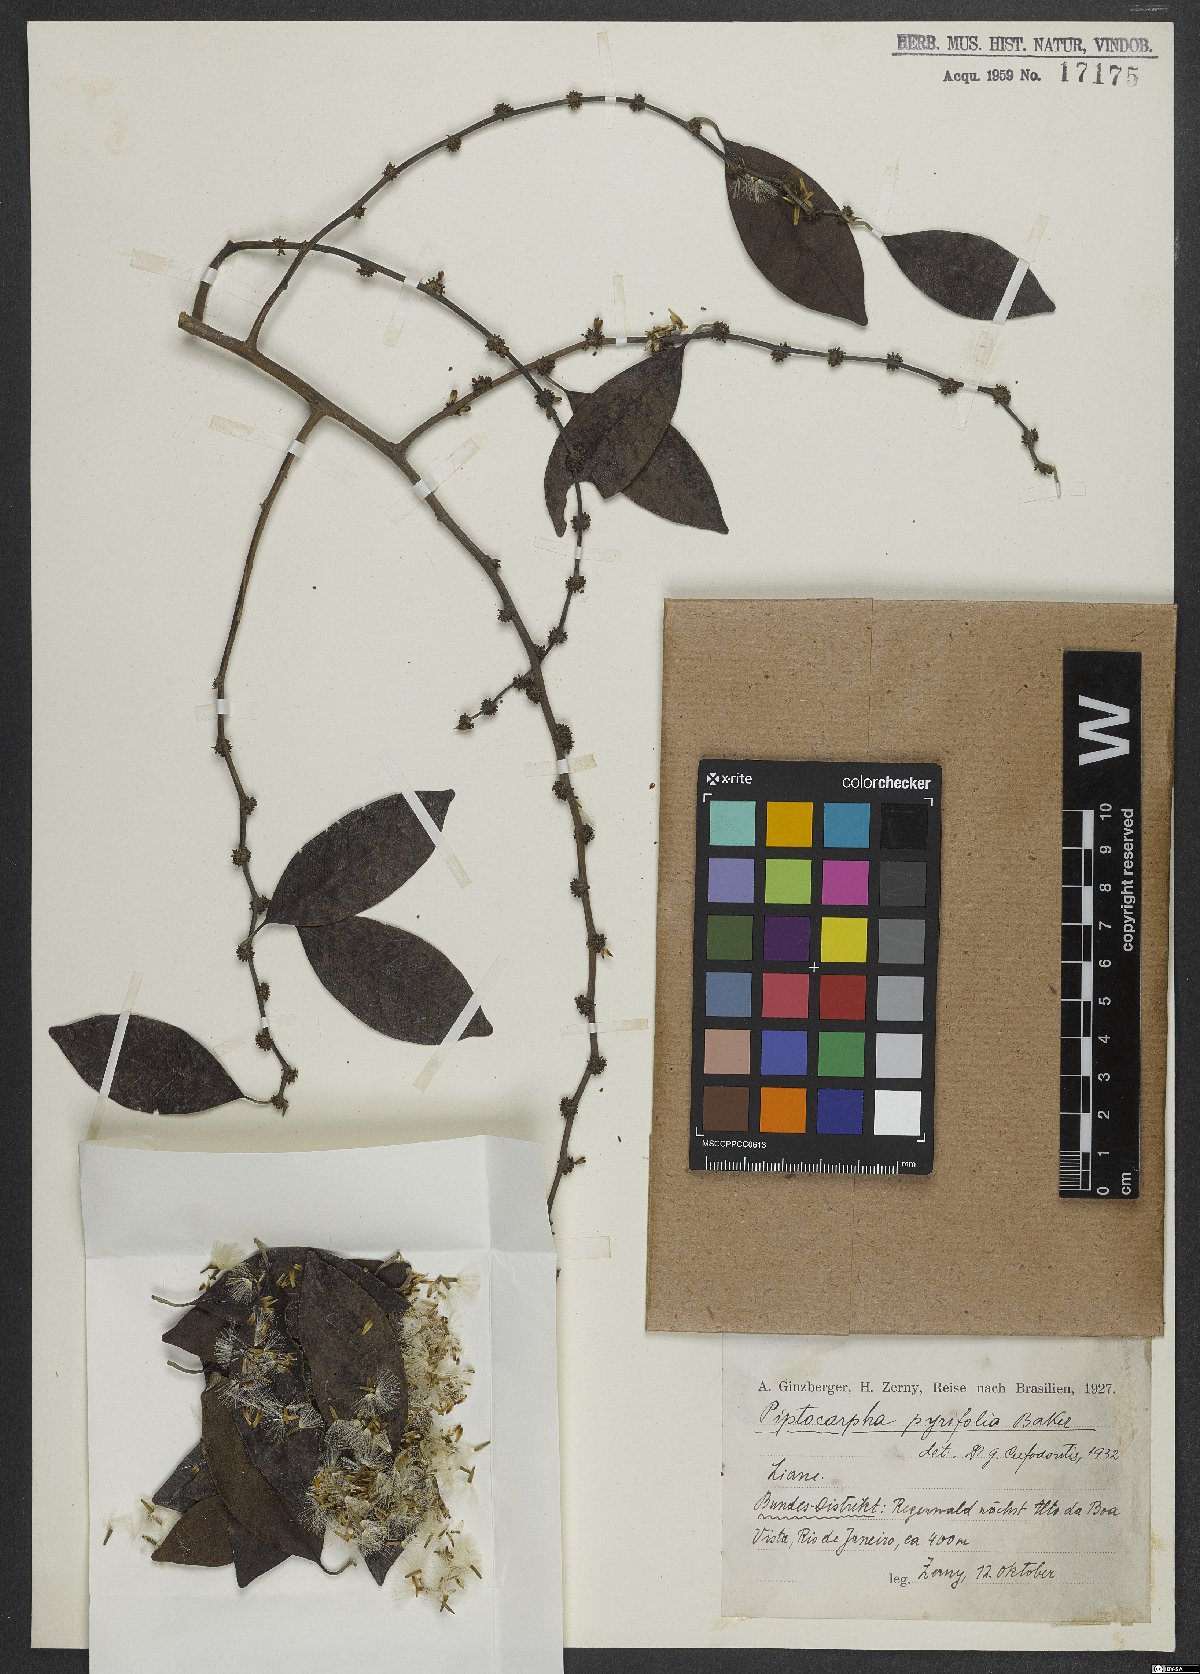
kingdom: Plantae
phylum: Tracheophyta
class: Magnoliopsida
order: Asterales
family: Asteraceae
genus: Piptocarpha
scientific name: Piptocarpha pyrifolia
